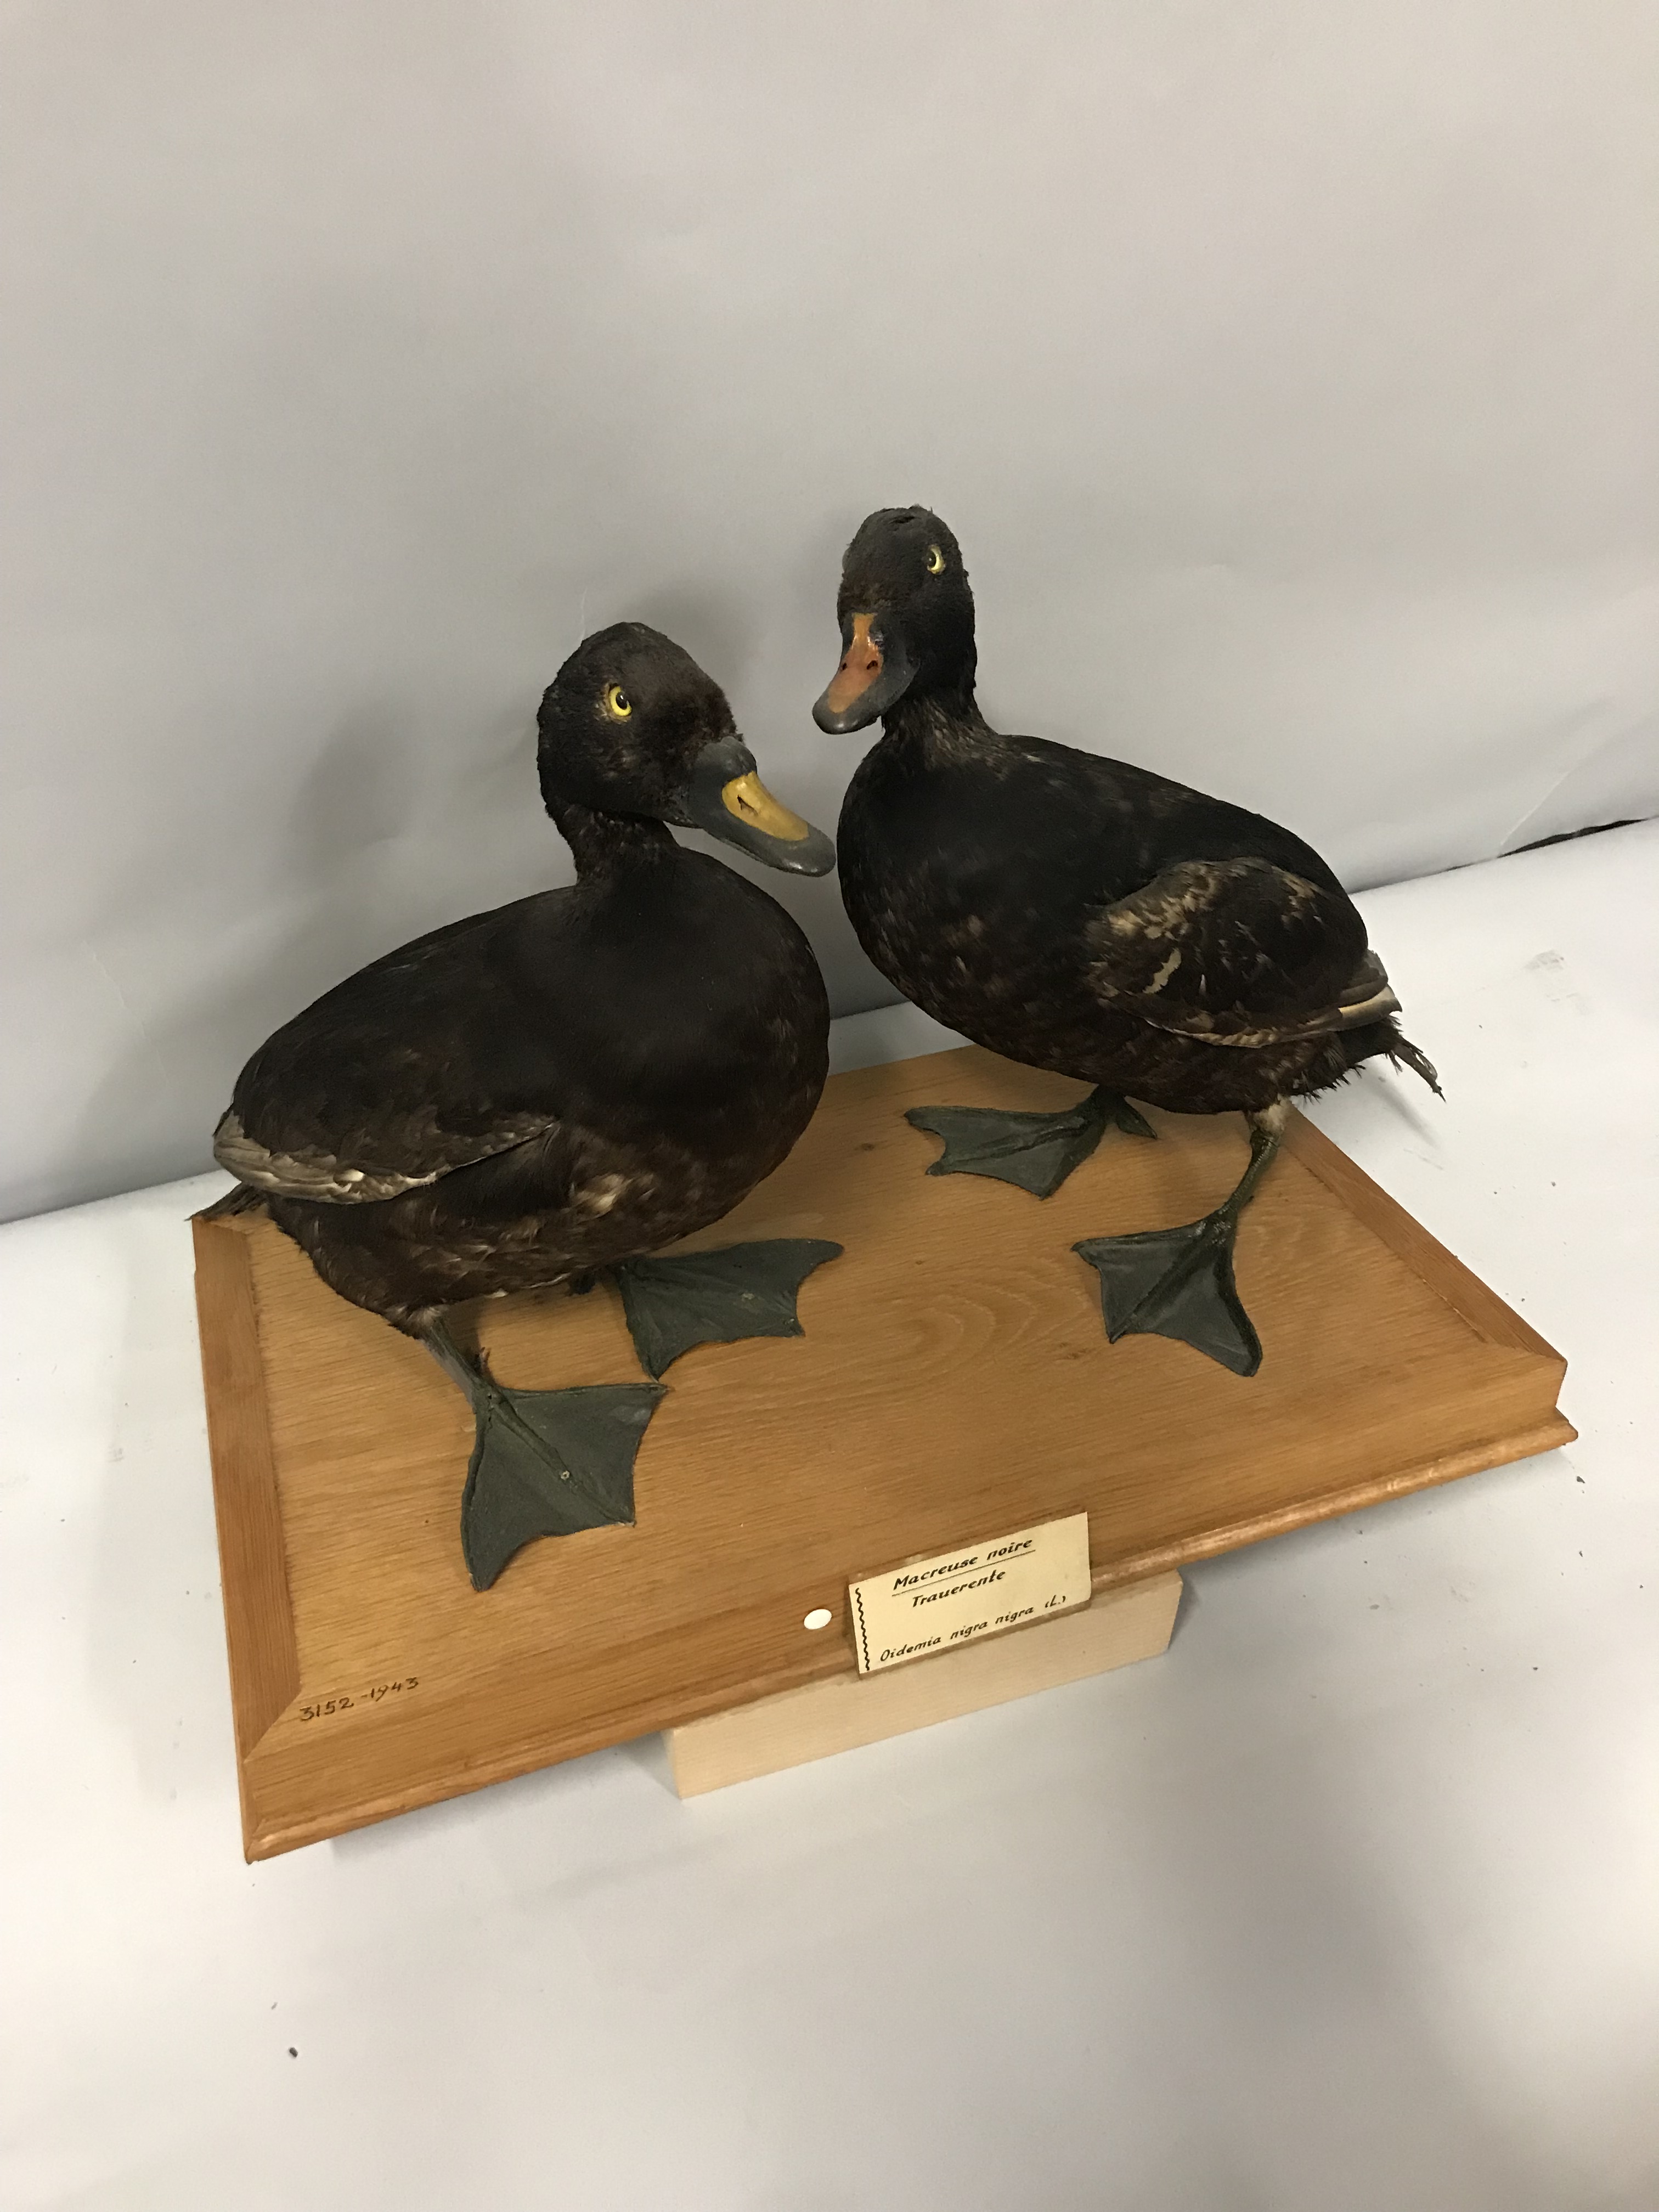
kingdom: Animalia
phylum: Chordata
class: Aves
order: Anseriformes
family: Anatidae
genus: Melanitta
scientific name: Melanitta nigra
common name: Common scoter
